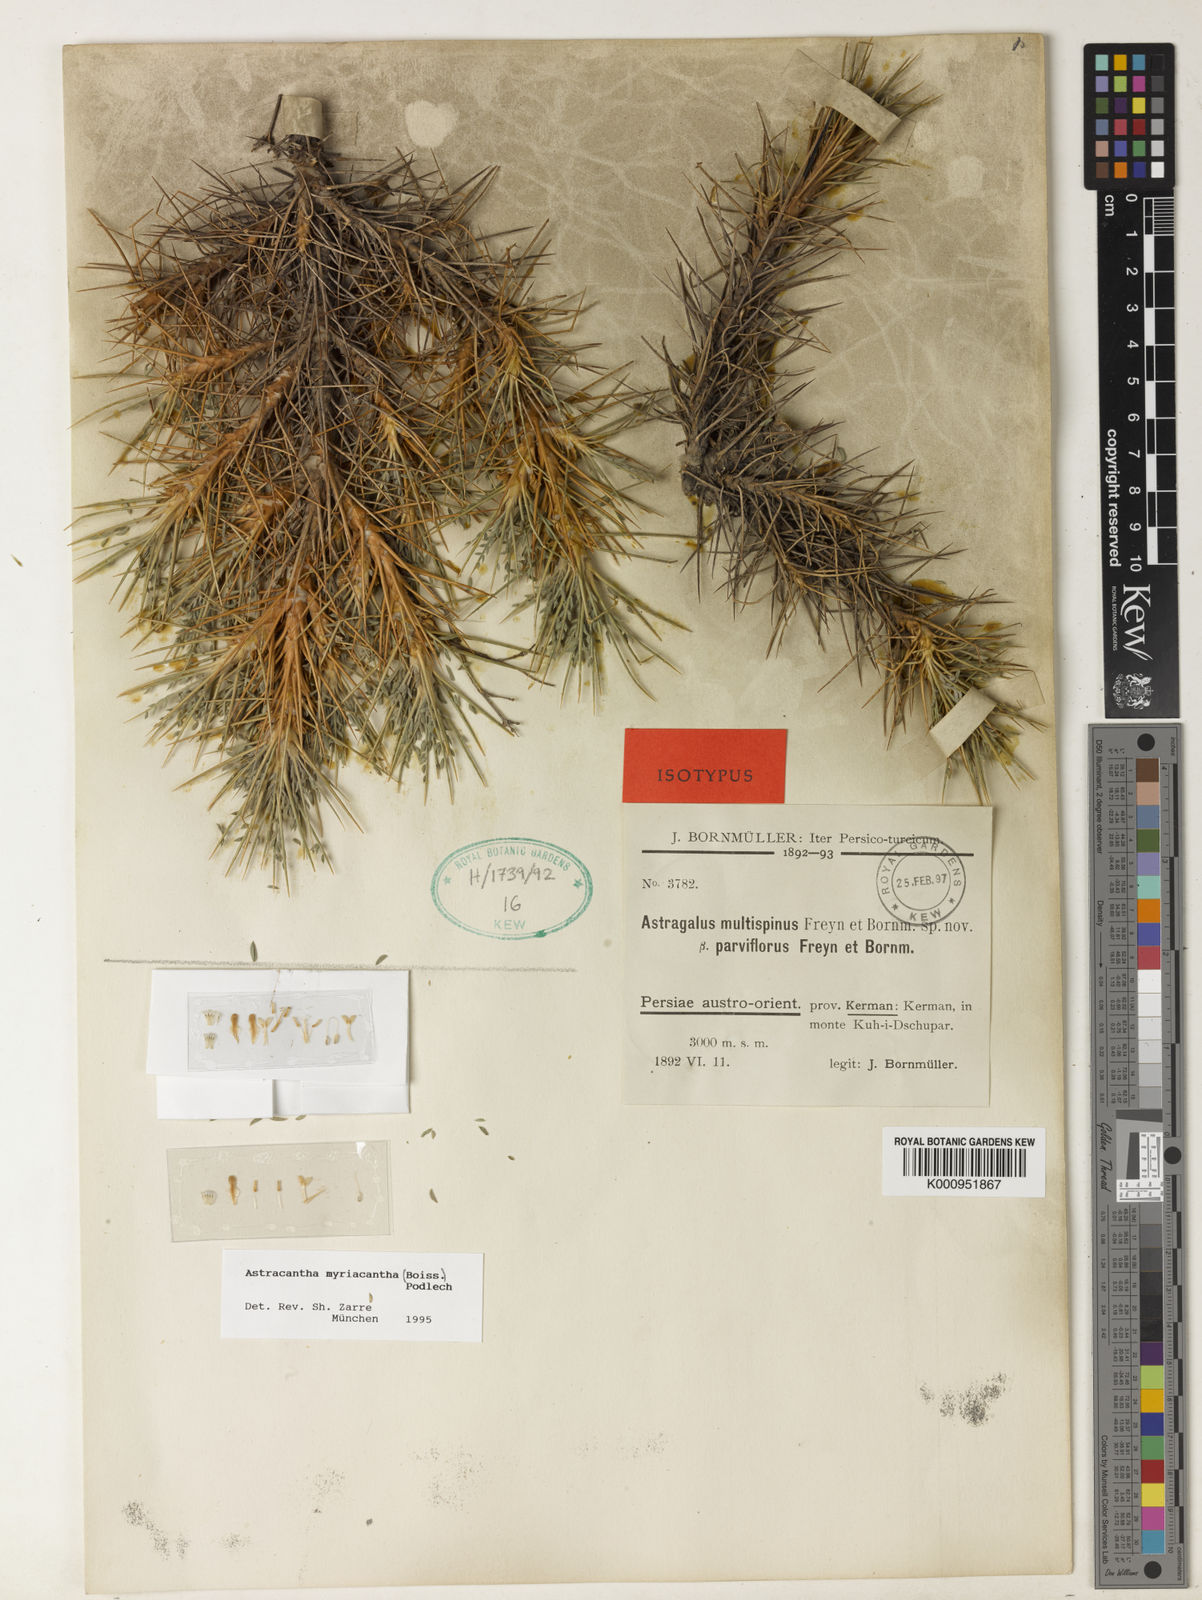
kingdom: Plantae
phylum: Tracheophyta
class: Magnoliopsida
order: Fabales
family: Fabaceae
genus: Astragalus
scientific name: Astragalus myriacanthus
